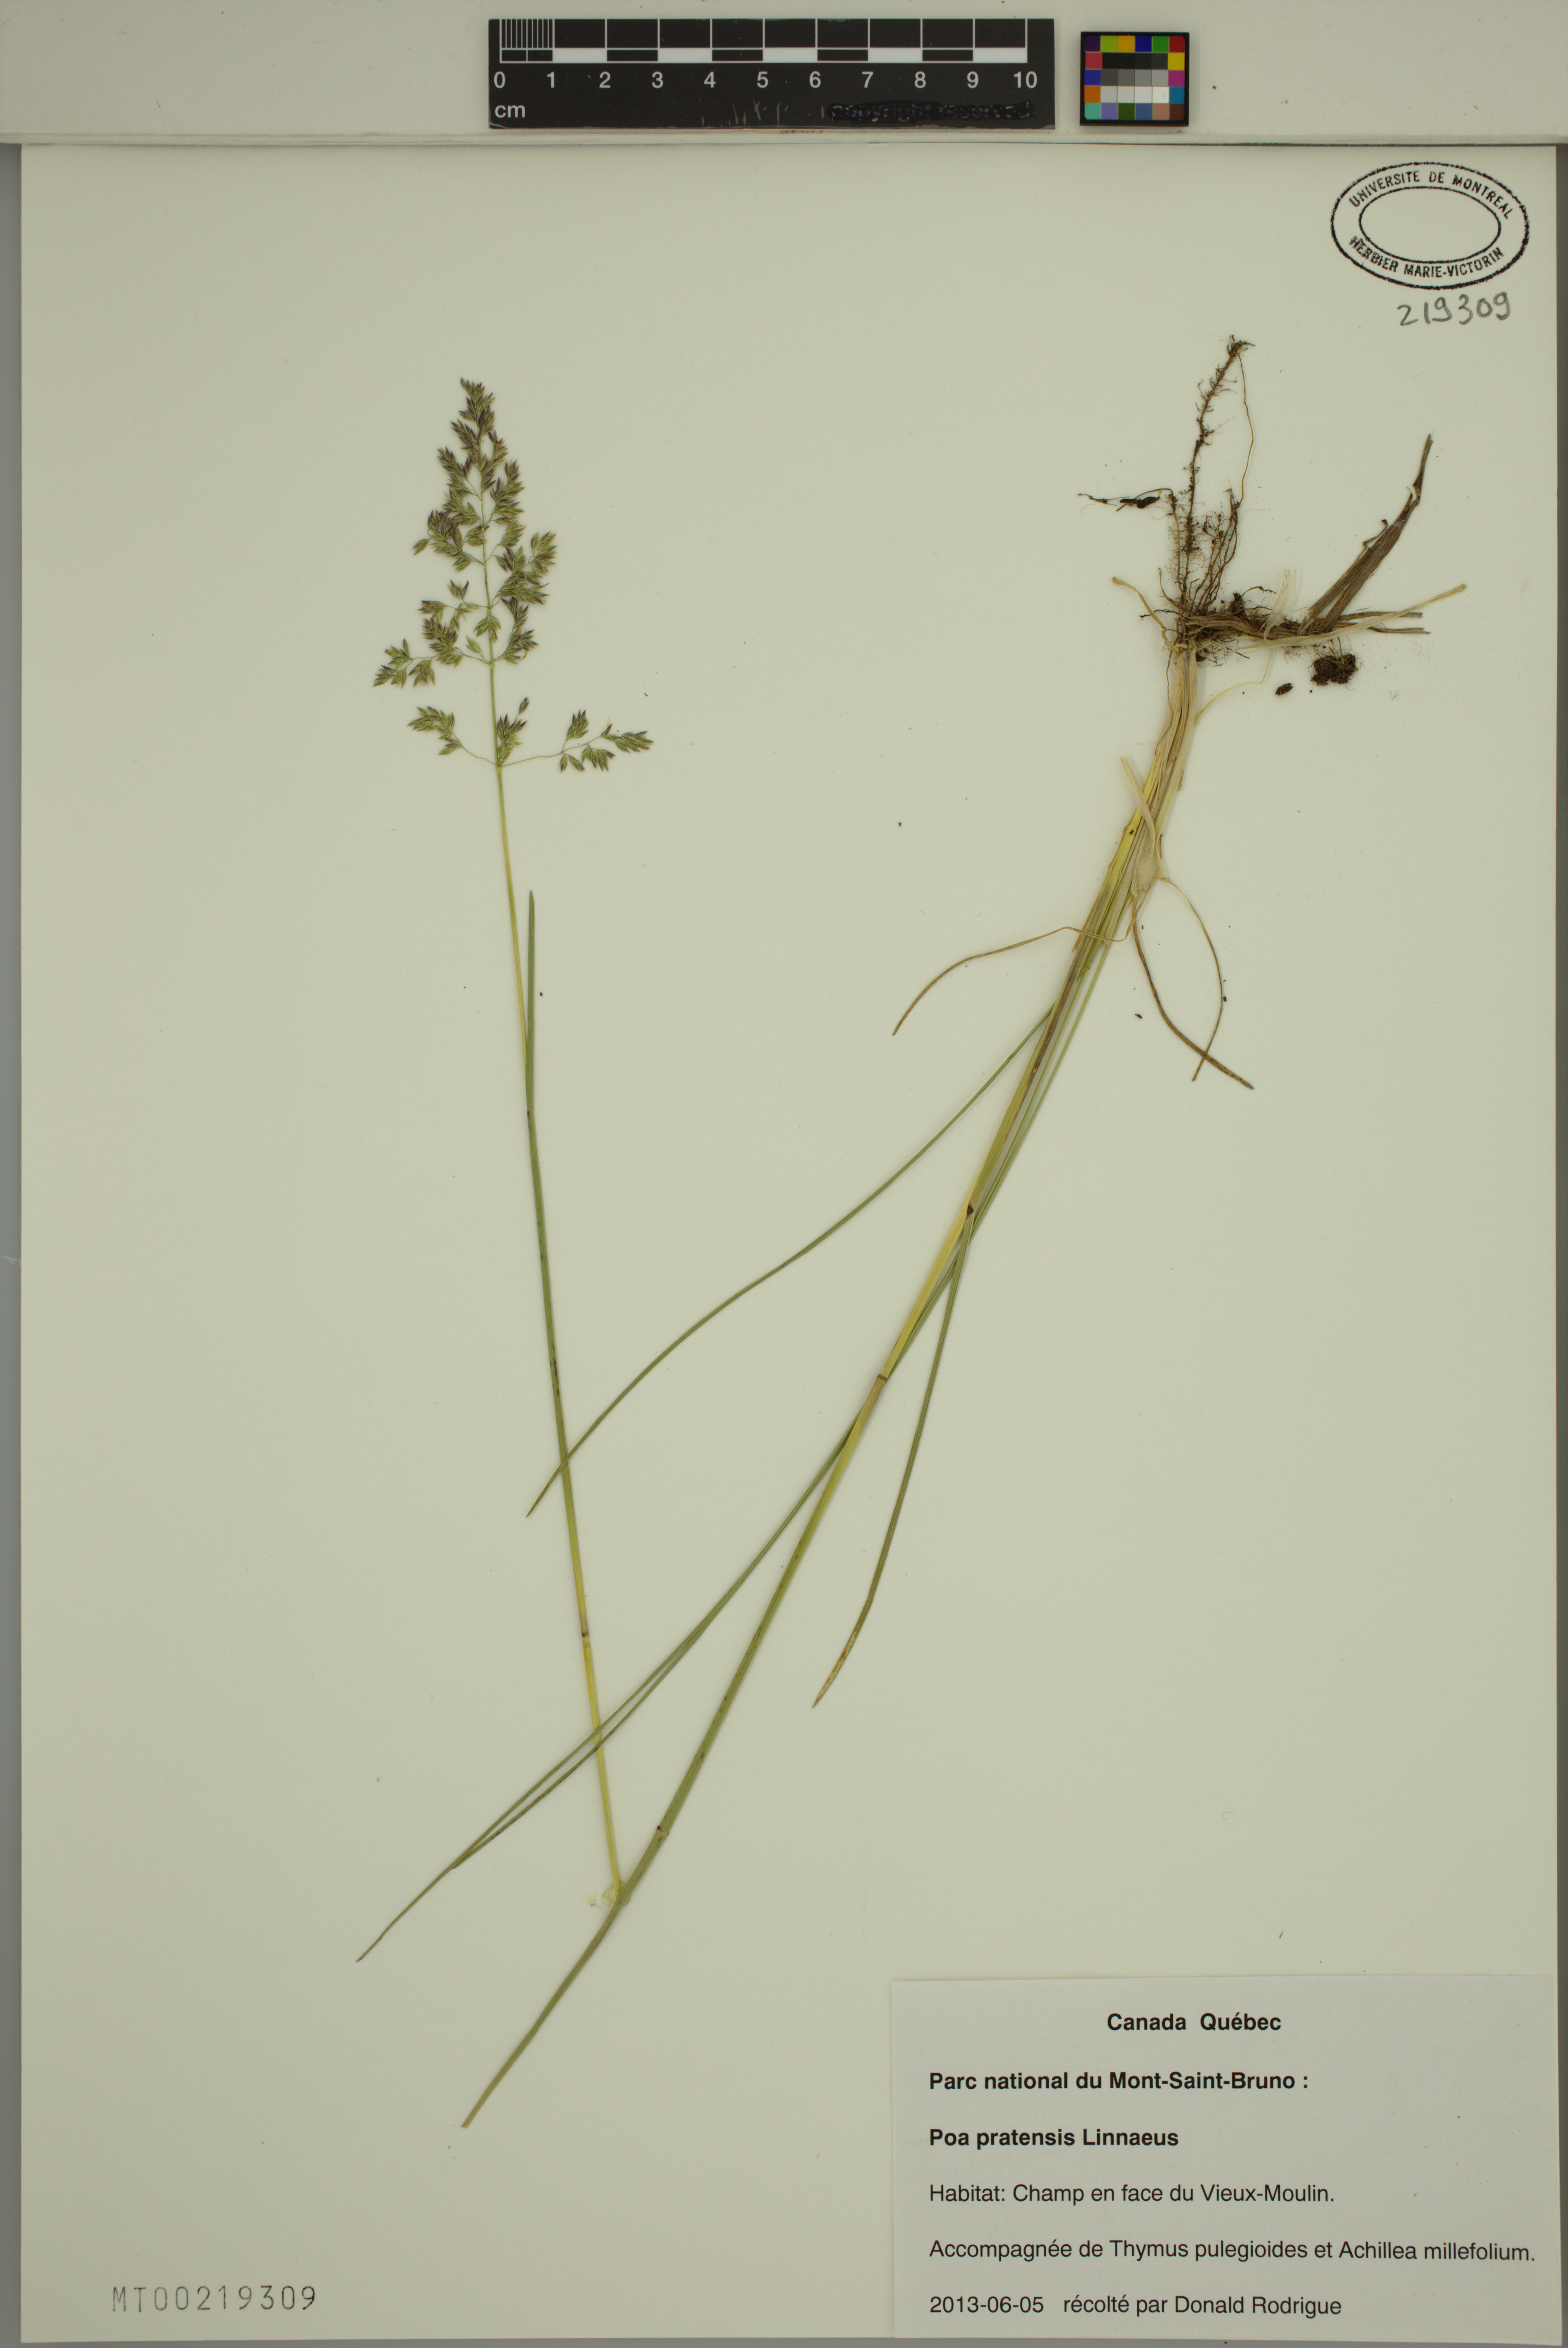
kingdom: Plantae
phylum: Tracheophyta
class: Liliopsida
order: Poales
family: Poaceae
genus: Poa
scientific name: Poa pratensis
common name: Kentucky bluegrass
